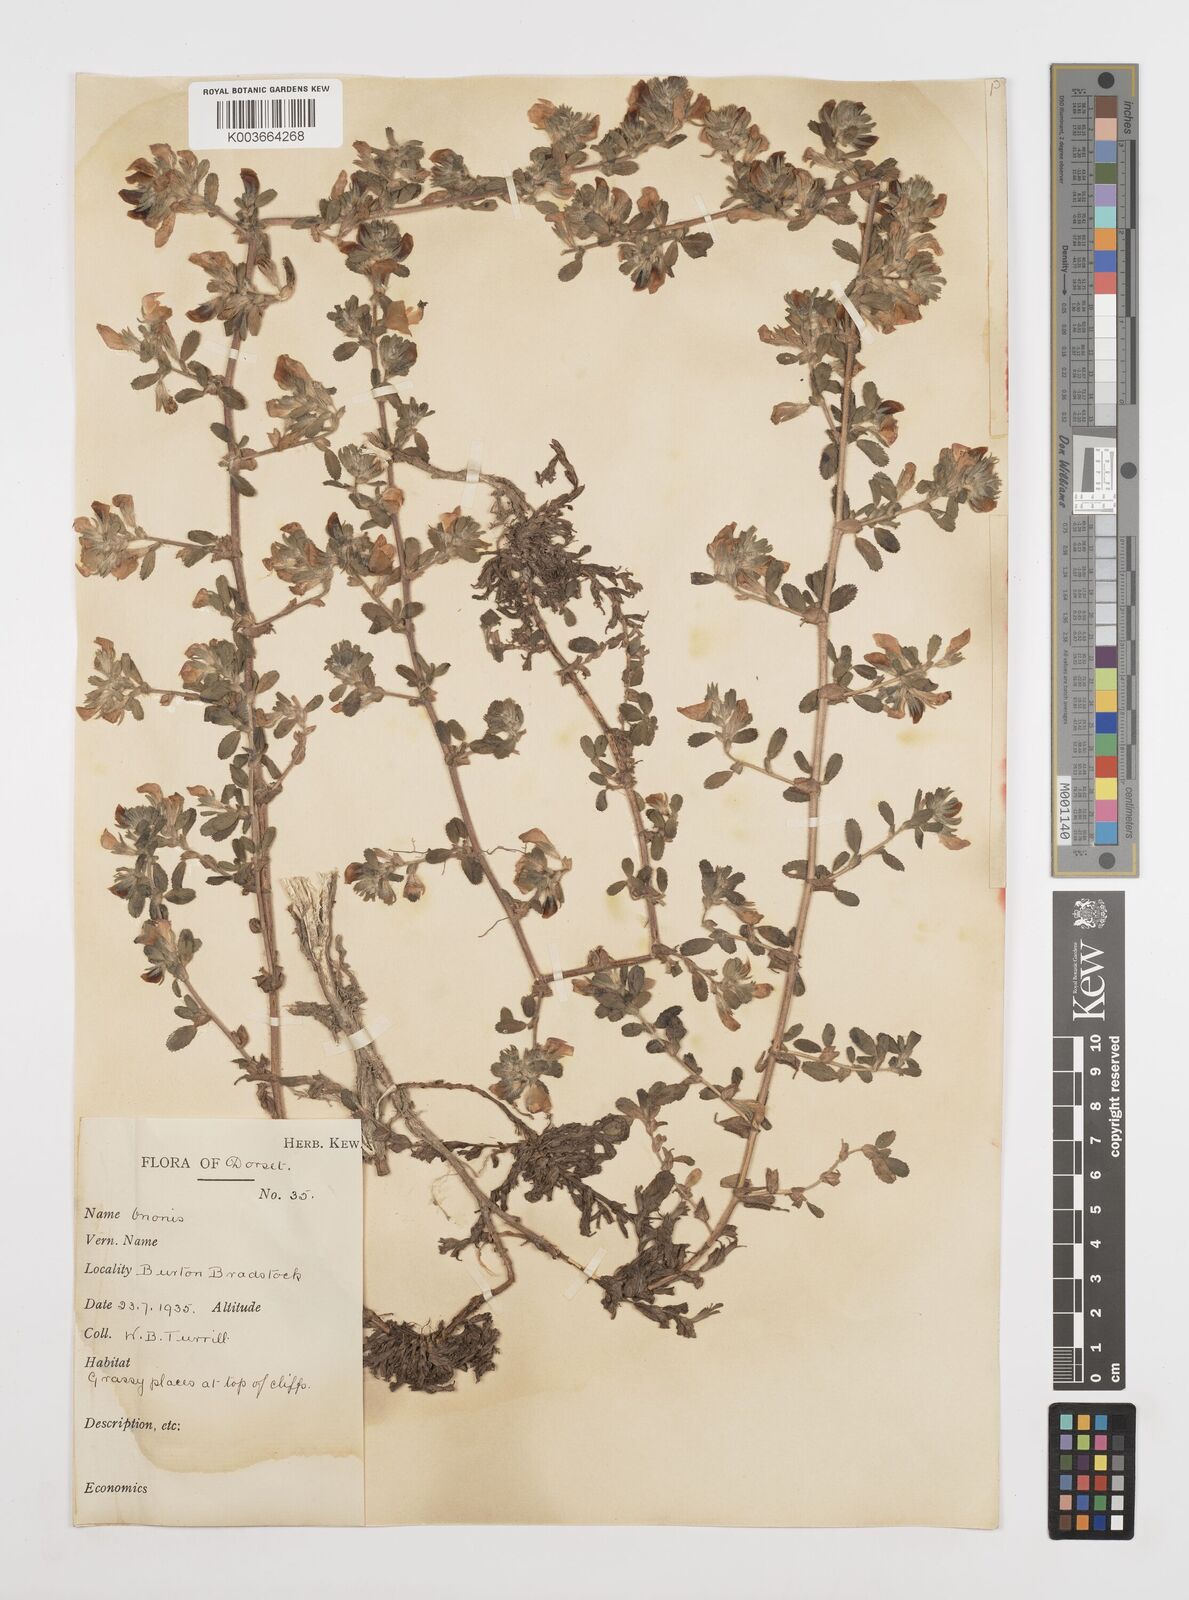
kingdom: Plantae
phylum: Tracheophyta
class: Magnoliopsida
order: Fabales
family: Fabaceae
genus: Ononis
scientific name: Ononis spinosa
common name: Spiny restharrow
